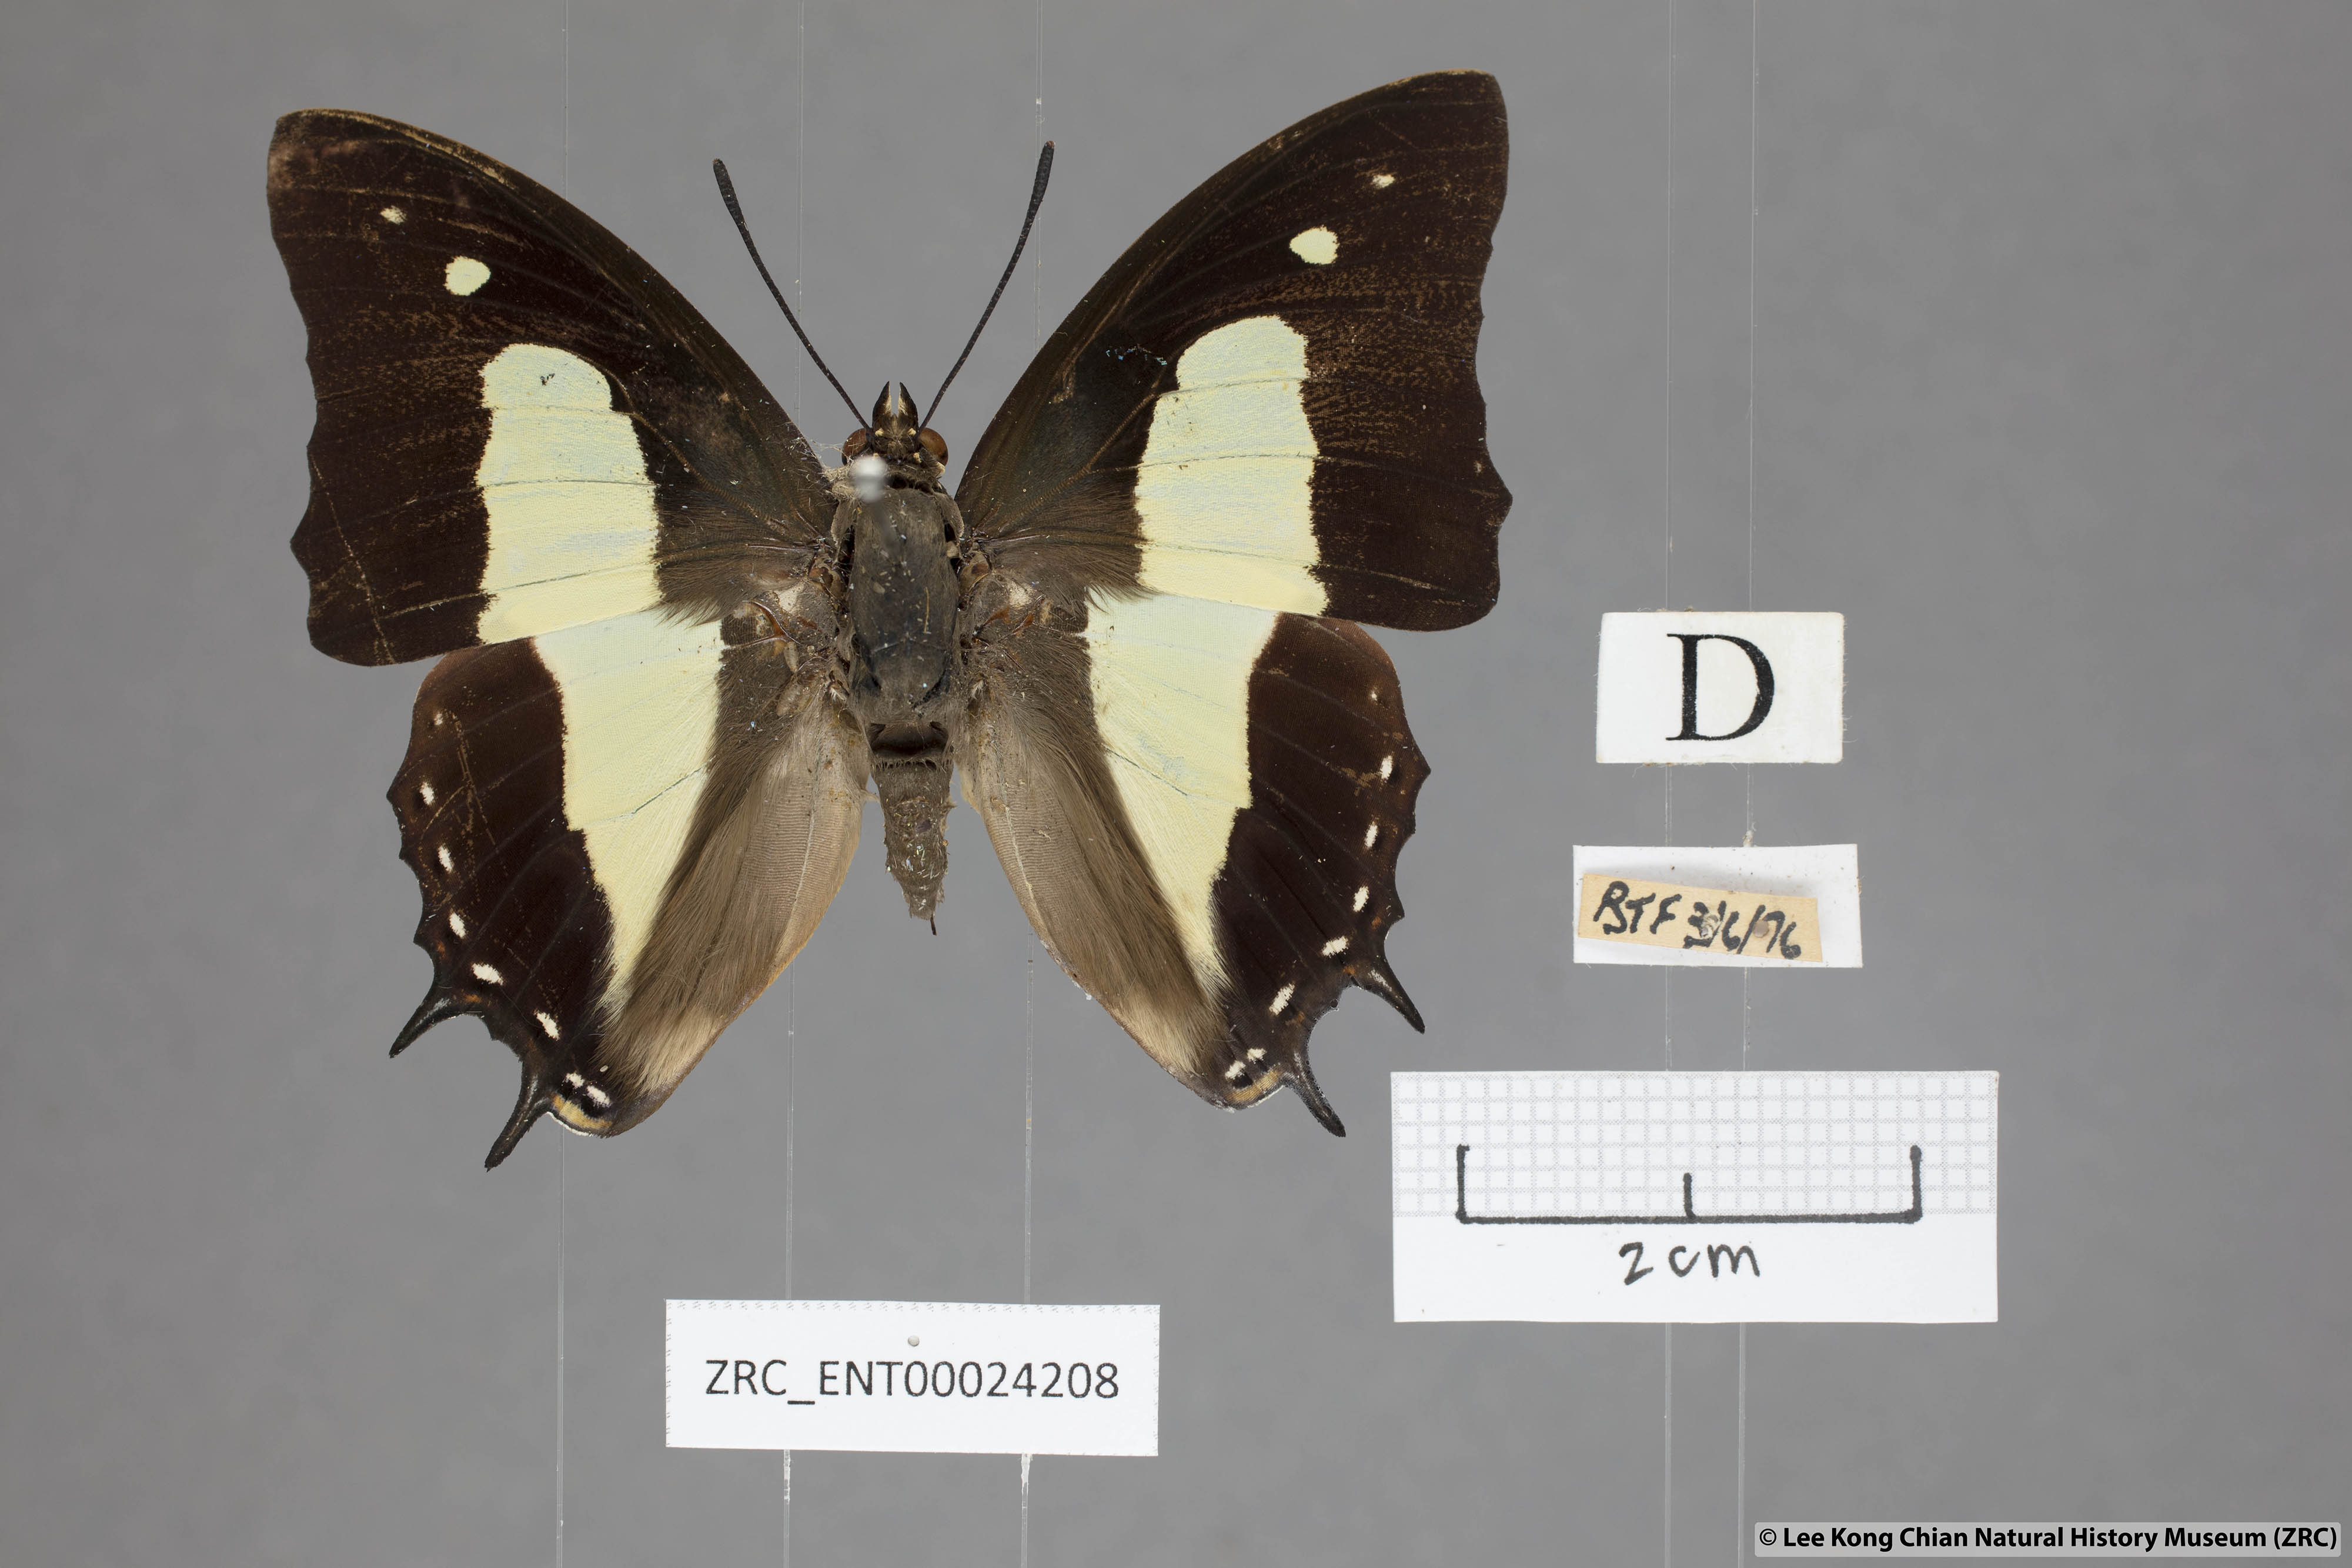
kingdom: Animalia
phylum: Arthropoda
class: Insecta
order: Lepidoptera
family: Nymphalidae
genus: Polyura
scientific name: Polyura athamas
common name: Common nawab
